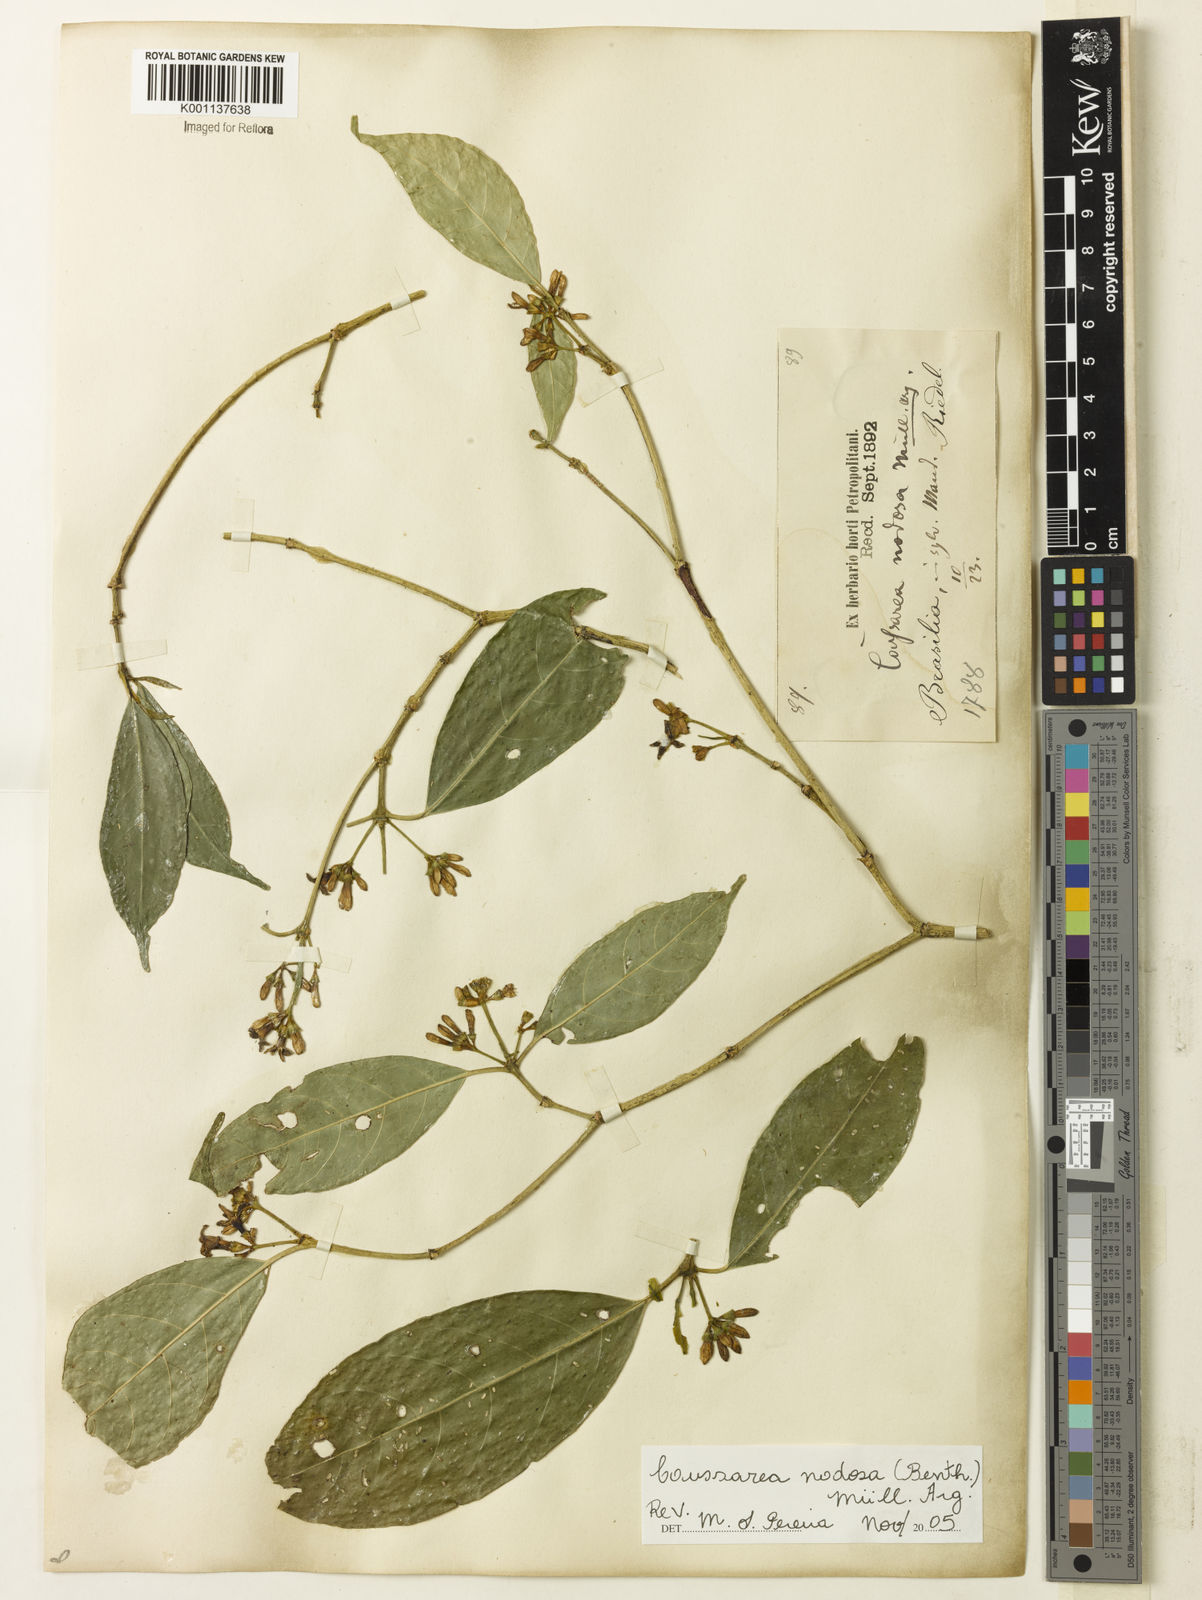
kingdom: Plantae
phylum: Tracheophyta
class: Magnoliopsida
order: Gentianales
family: Rubiaceae
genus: Coussarea
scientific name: Coussarea
